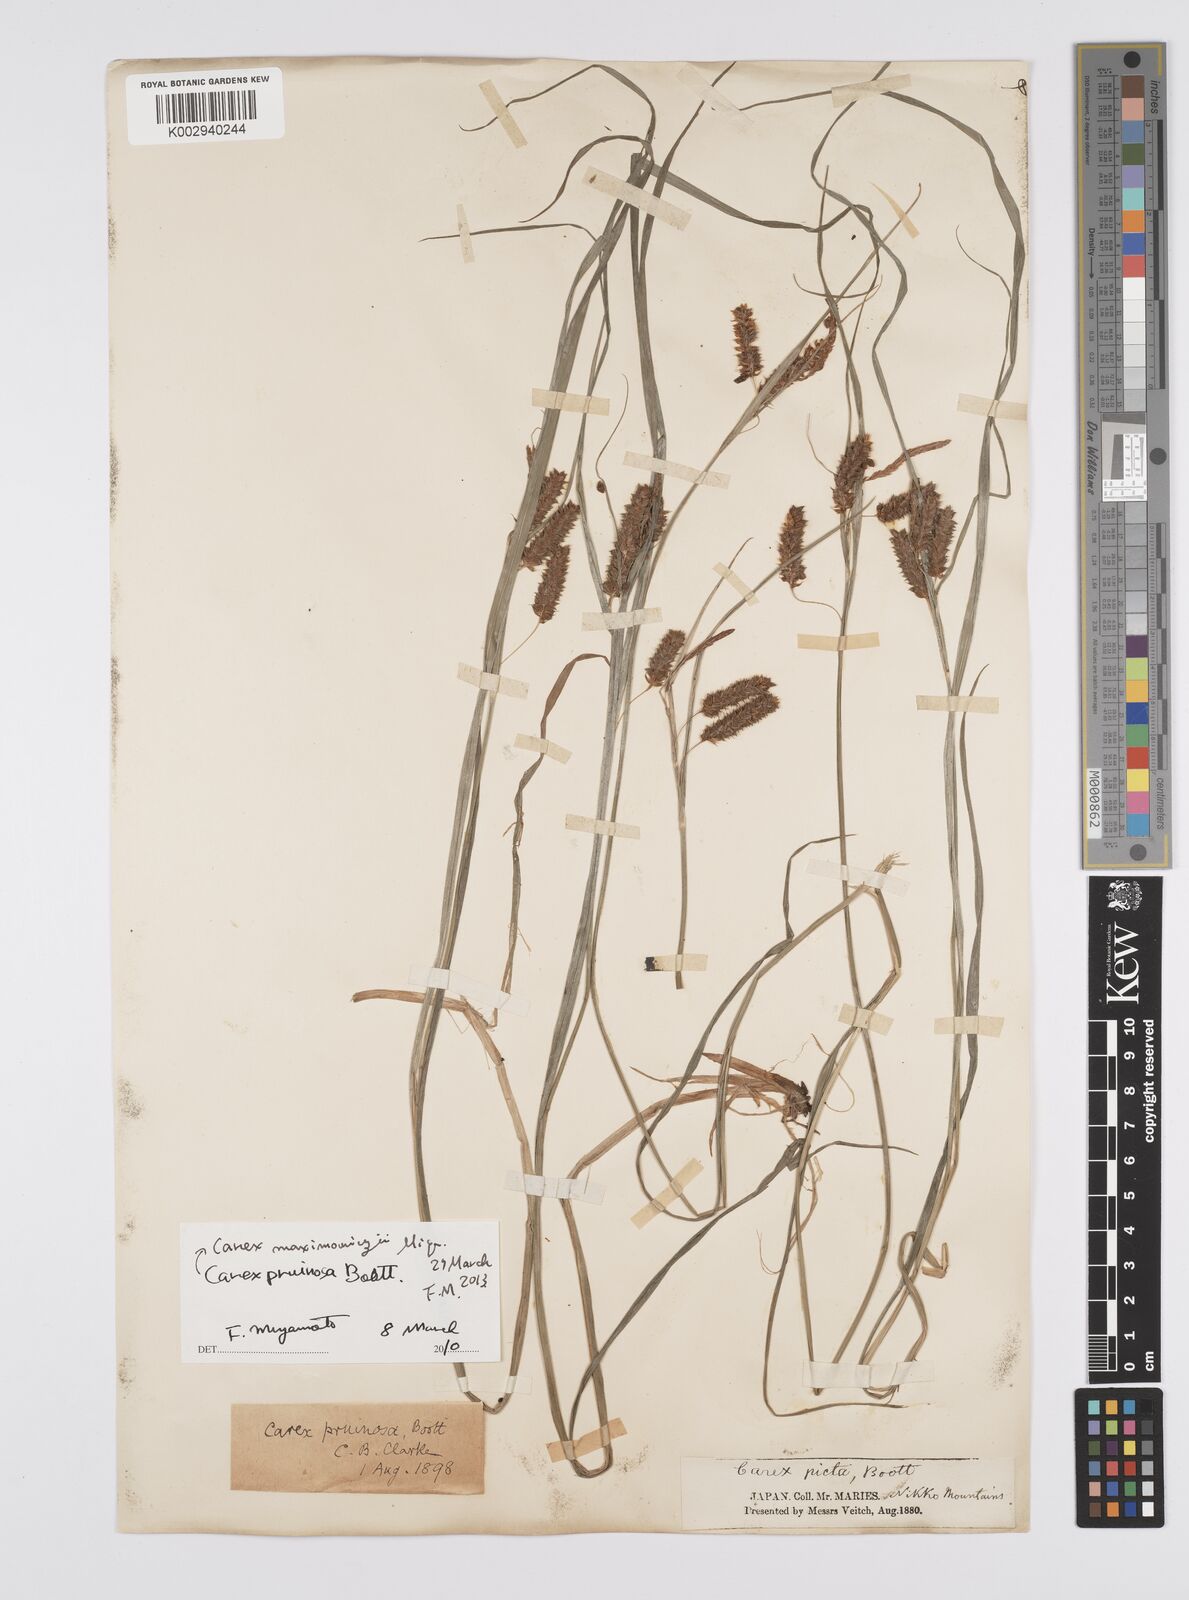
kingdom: Plantae
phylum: Tracheophyta
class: Liliopsida
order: Poales
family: Cyperaceae
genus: Carex
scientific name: Carex pruinosa
